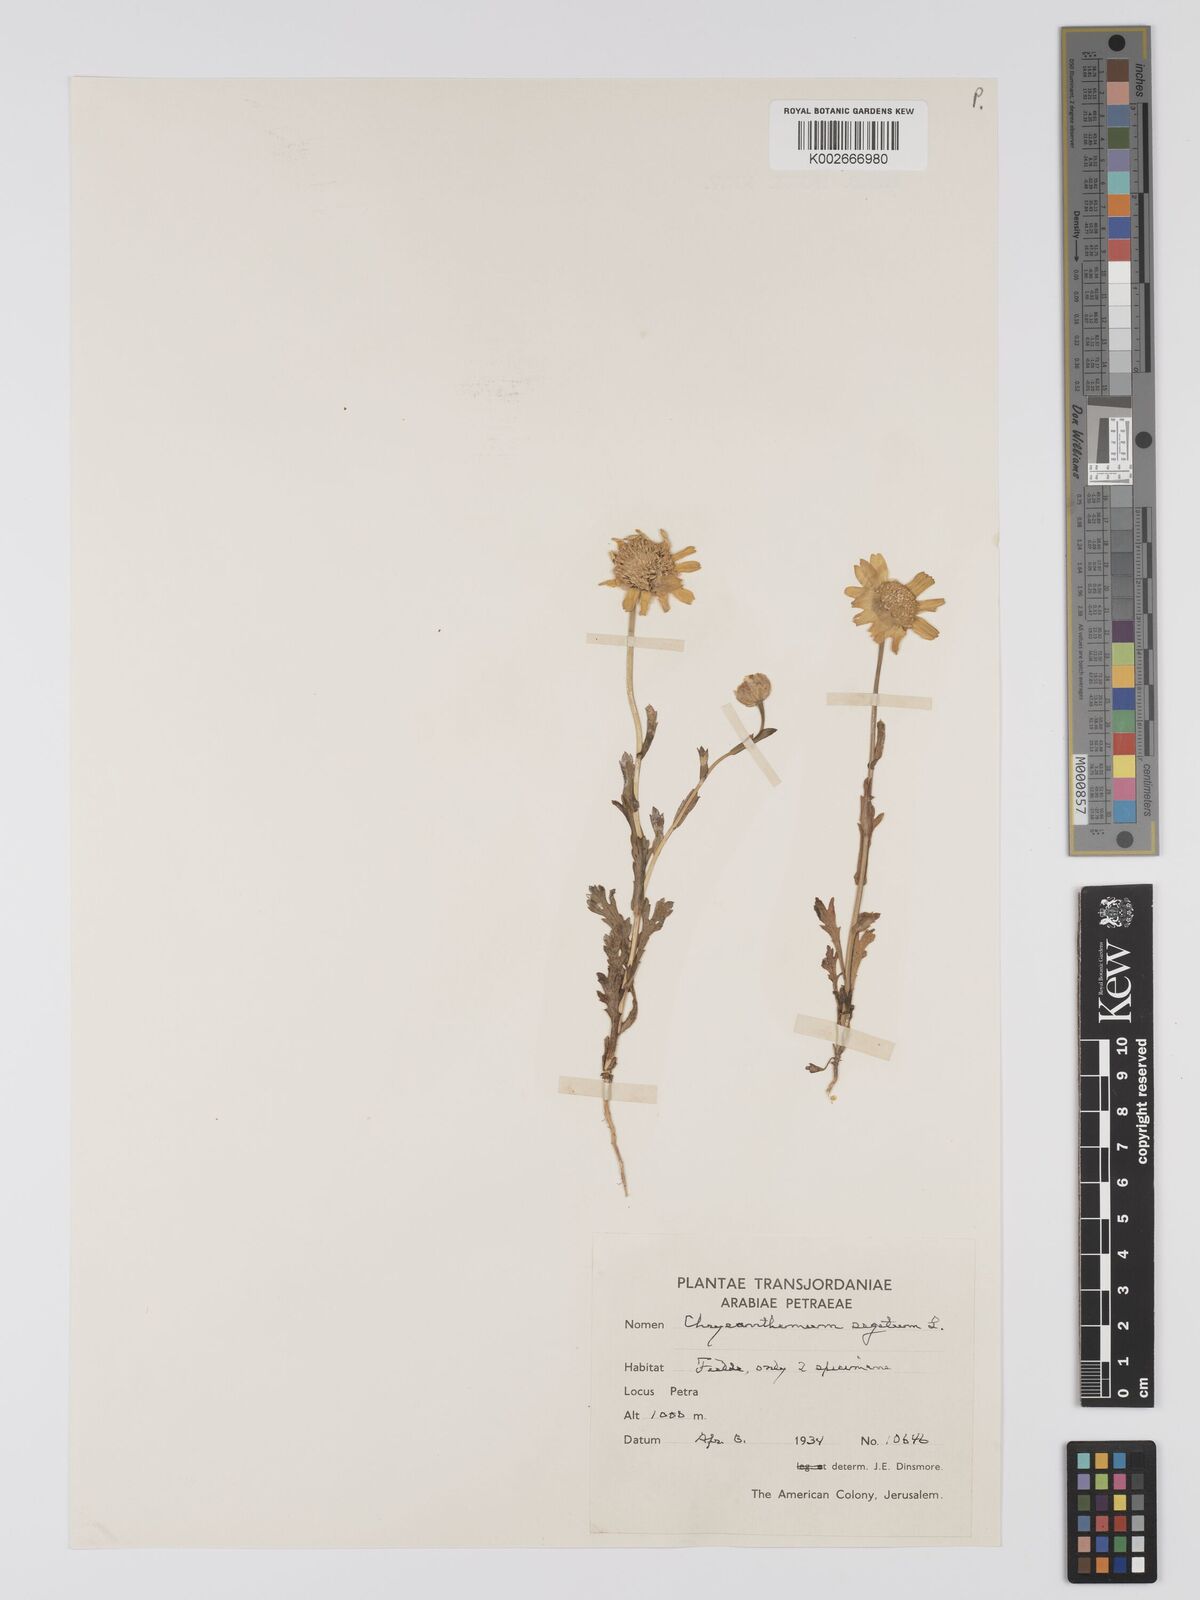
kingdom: Plantae
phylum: Tracheophyta
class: Magnoliopsida
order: Asterales
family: Asteraceae
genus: Glebionis
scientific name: Glebionis segetum
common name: Corndaisy
